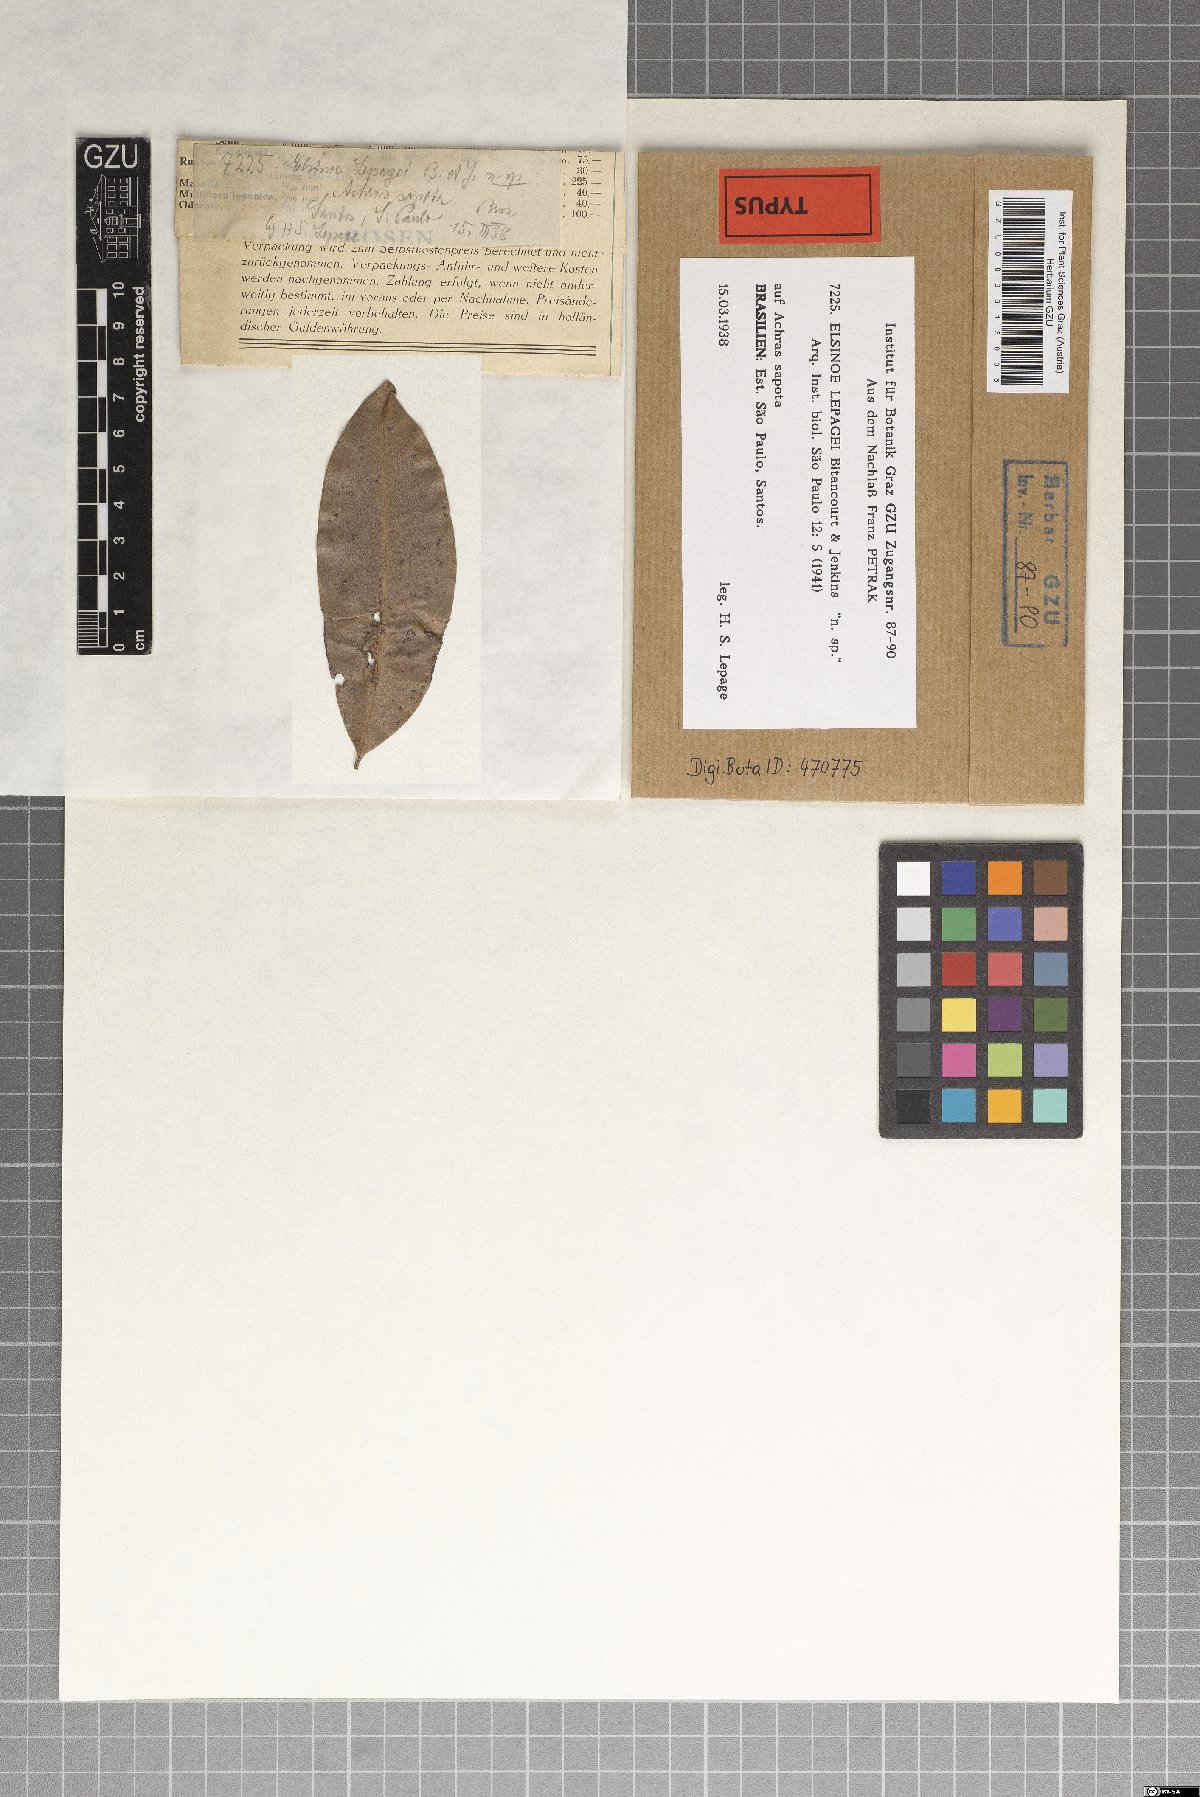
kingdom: Fungi
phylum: Ascomycota
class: Dothideomycetes
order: Myriangiales
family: Elsinoaceae
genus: Elsinoe
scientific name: Elsinoe lepagei
